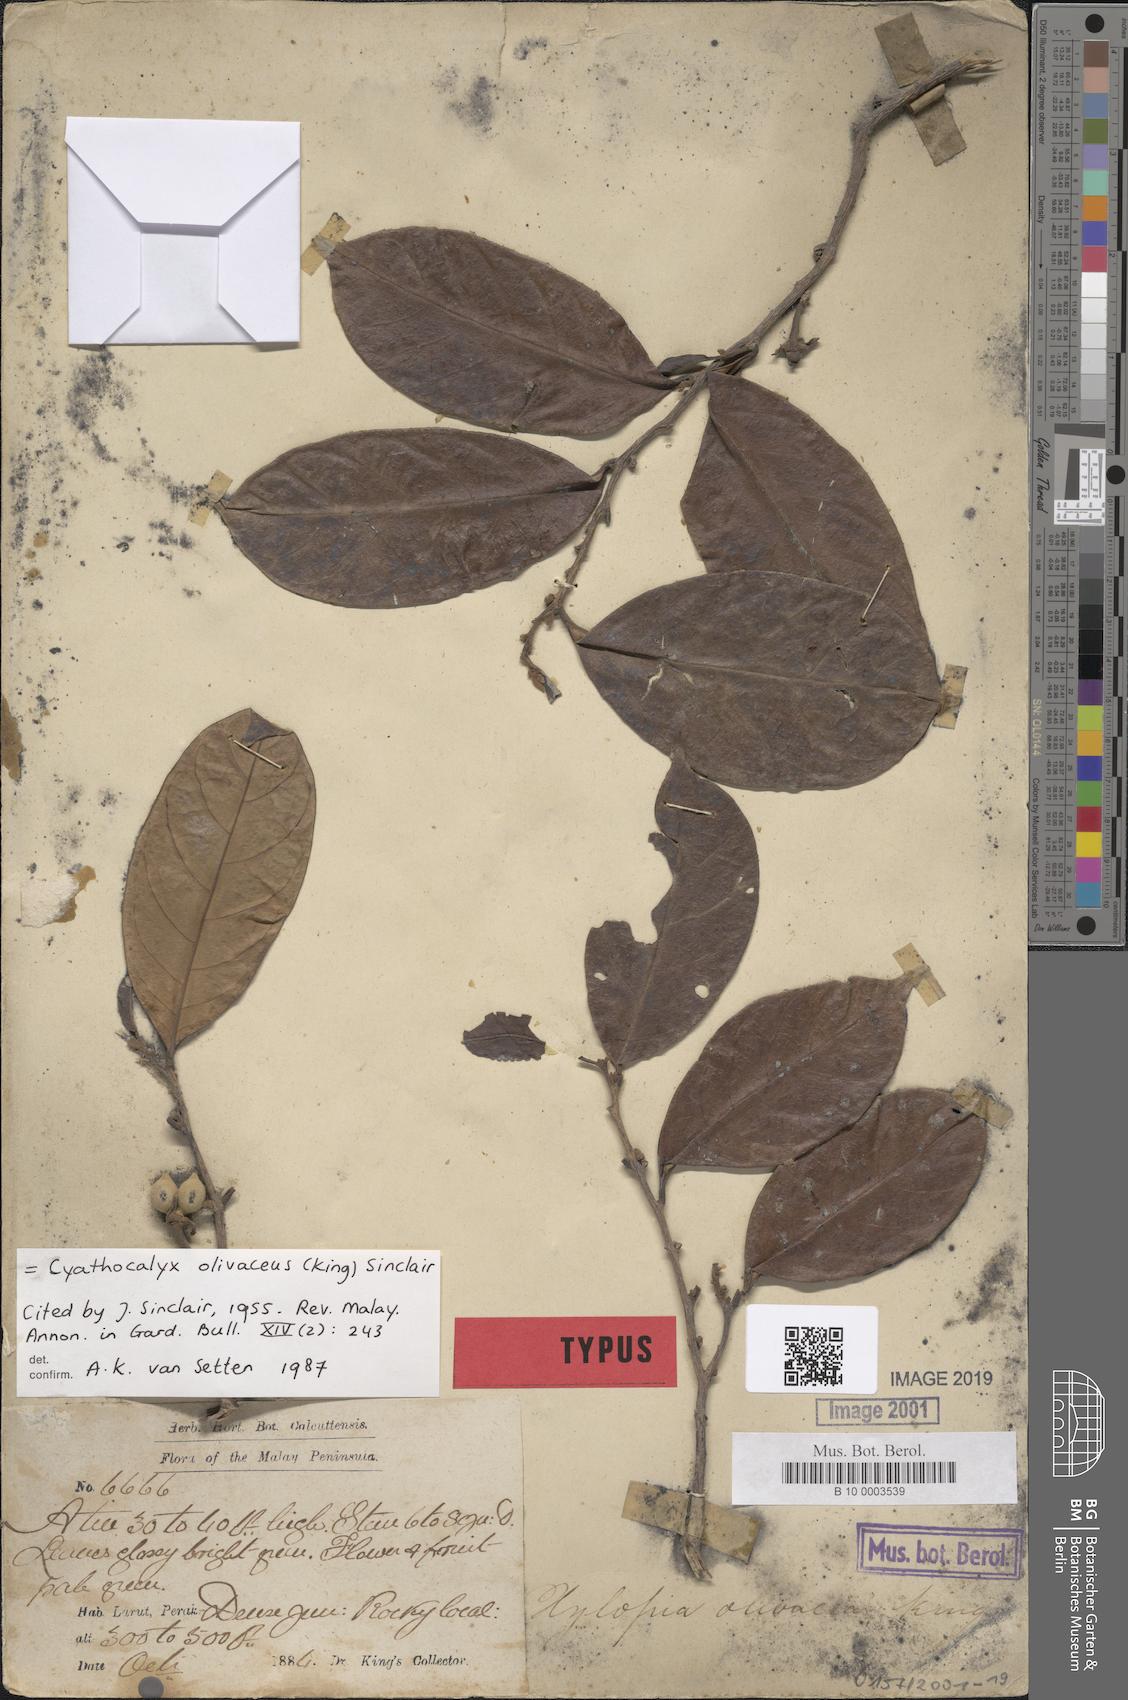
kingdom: Plantae
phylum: Tracheophyta
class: Magnoliopsida
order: Magnoliales
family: Annonaceae
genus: Drepananthus
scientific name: Drepananthus olivaceus
